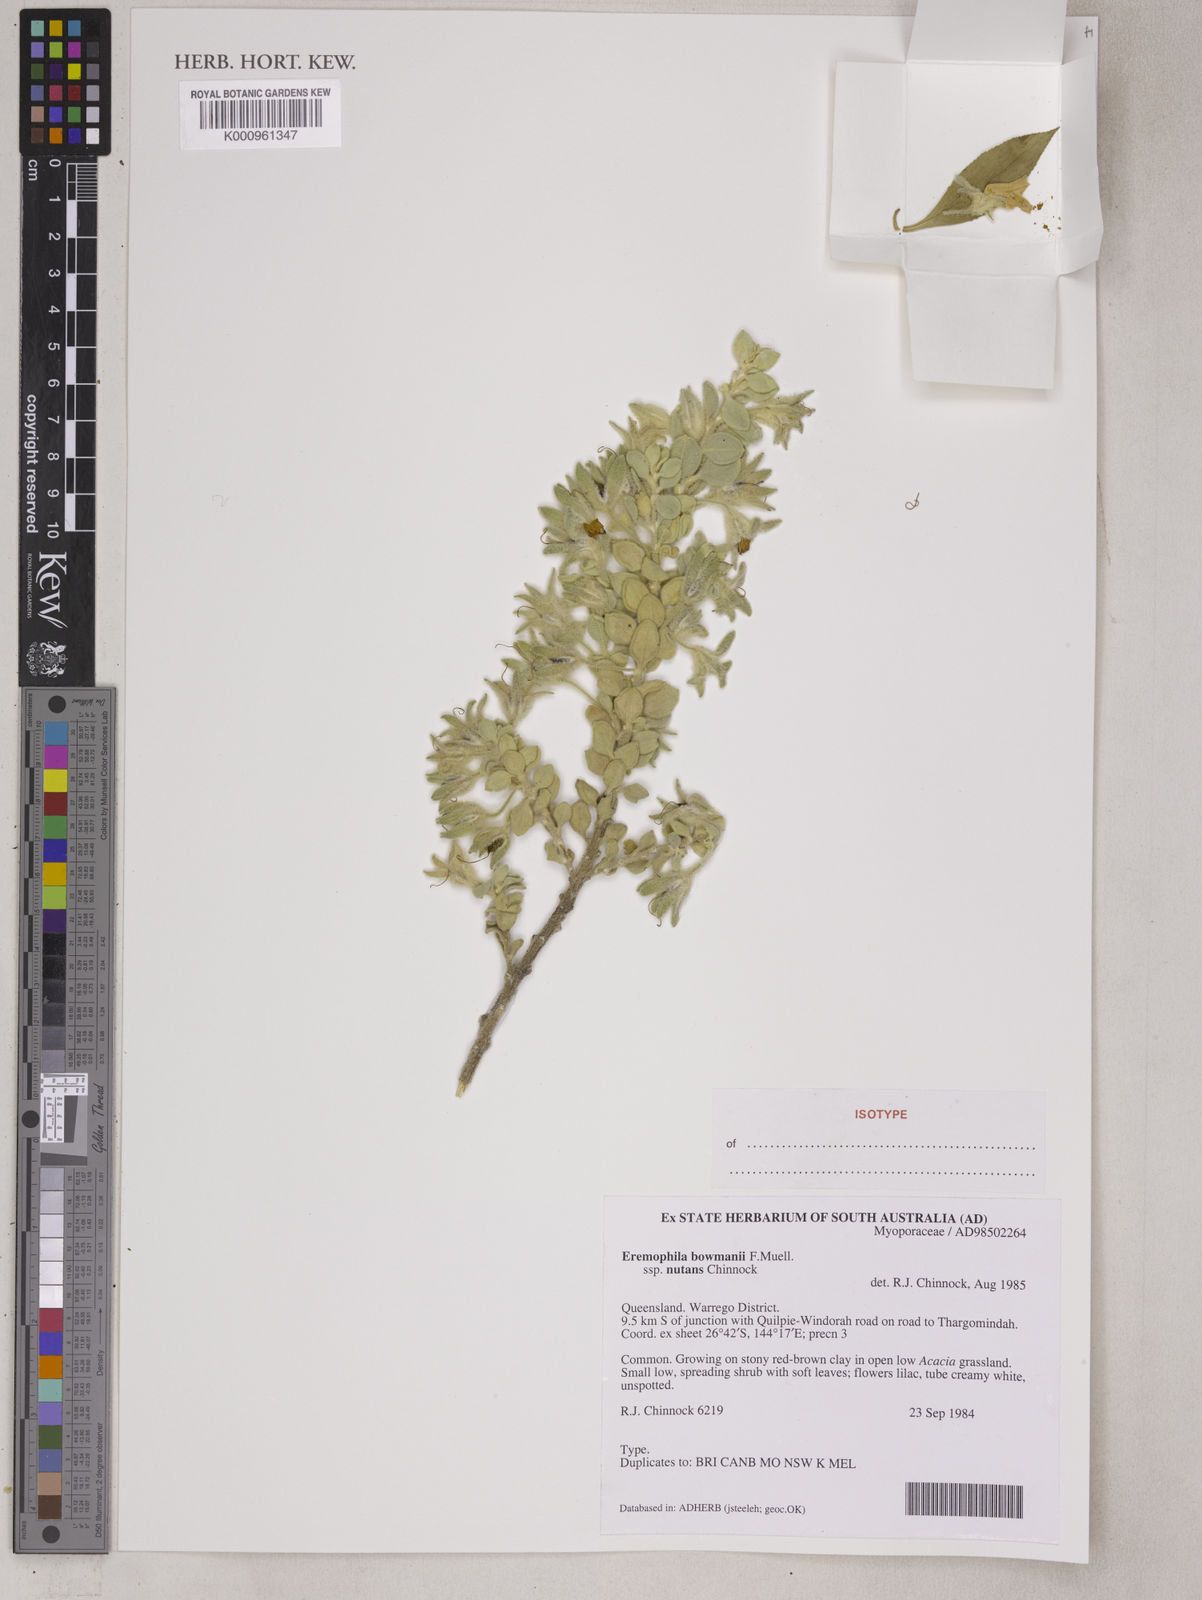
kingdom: Plantae
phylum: Tracheophyta
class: Magnoliopsida
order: Lamiales
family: Scrophulariaceae
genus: Eremophila
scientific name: Eremophila bowmanii
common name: Silver turkeybush
